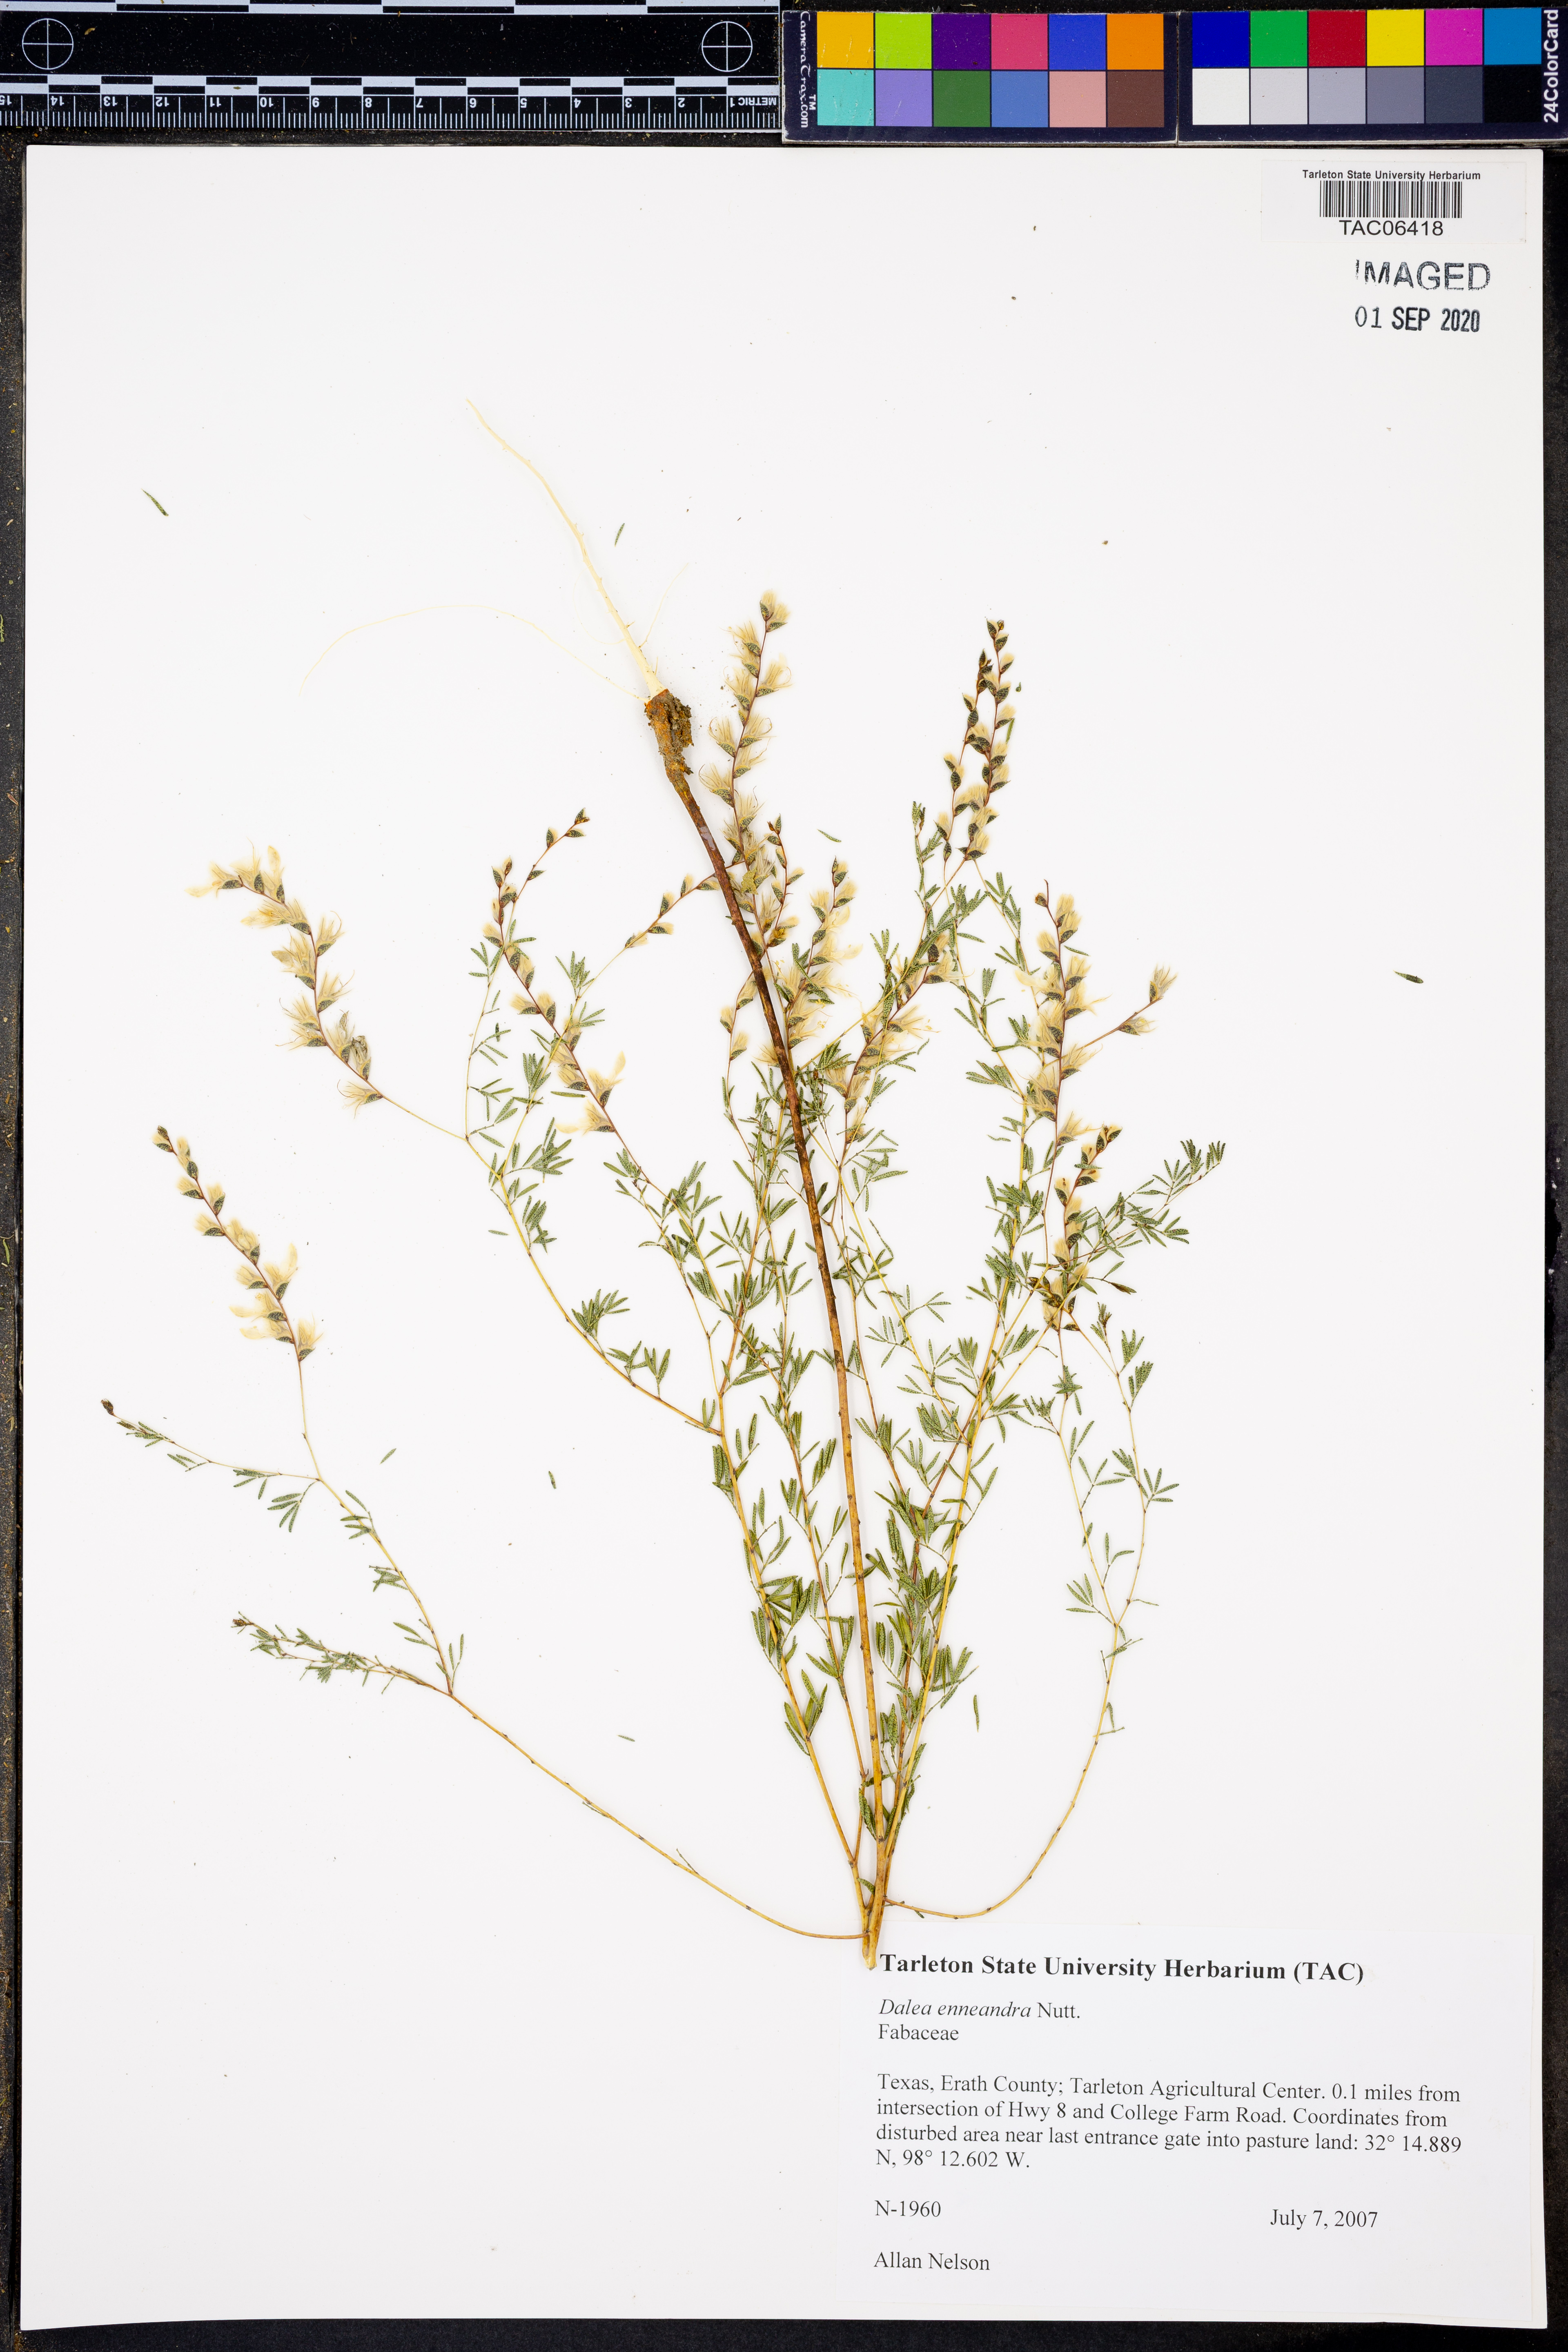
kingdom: Plantae
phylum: Tracheophyta
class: Magnoliopsida
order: Fabales
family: Fabaceae
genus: Dalea
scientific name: Dalea enneandra
